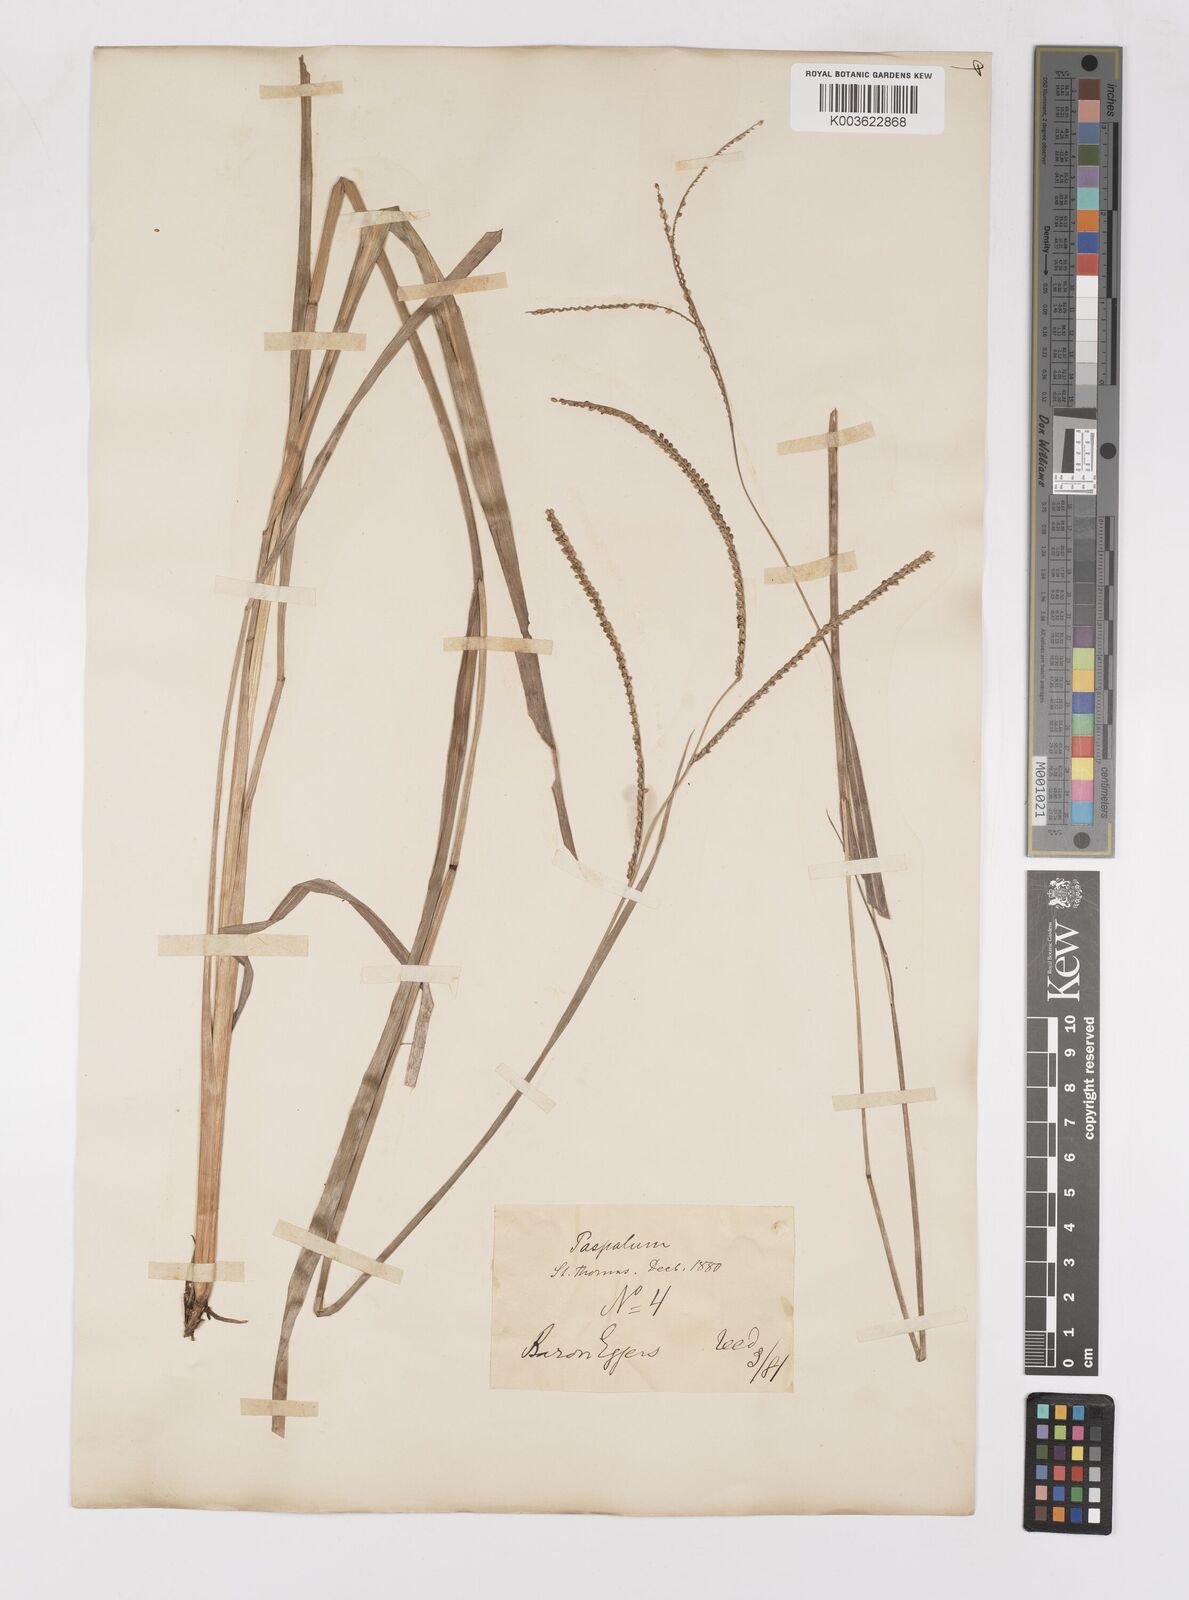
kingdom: Plantae
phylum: Tracheophyta
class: Liliopsida
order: Poales
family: Poaceae
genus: Paspalum
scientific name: Paspalum laxum
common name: Coconut paspalum
